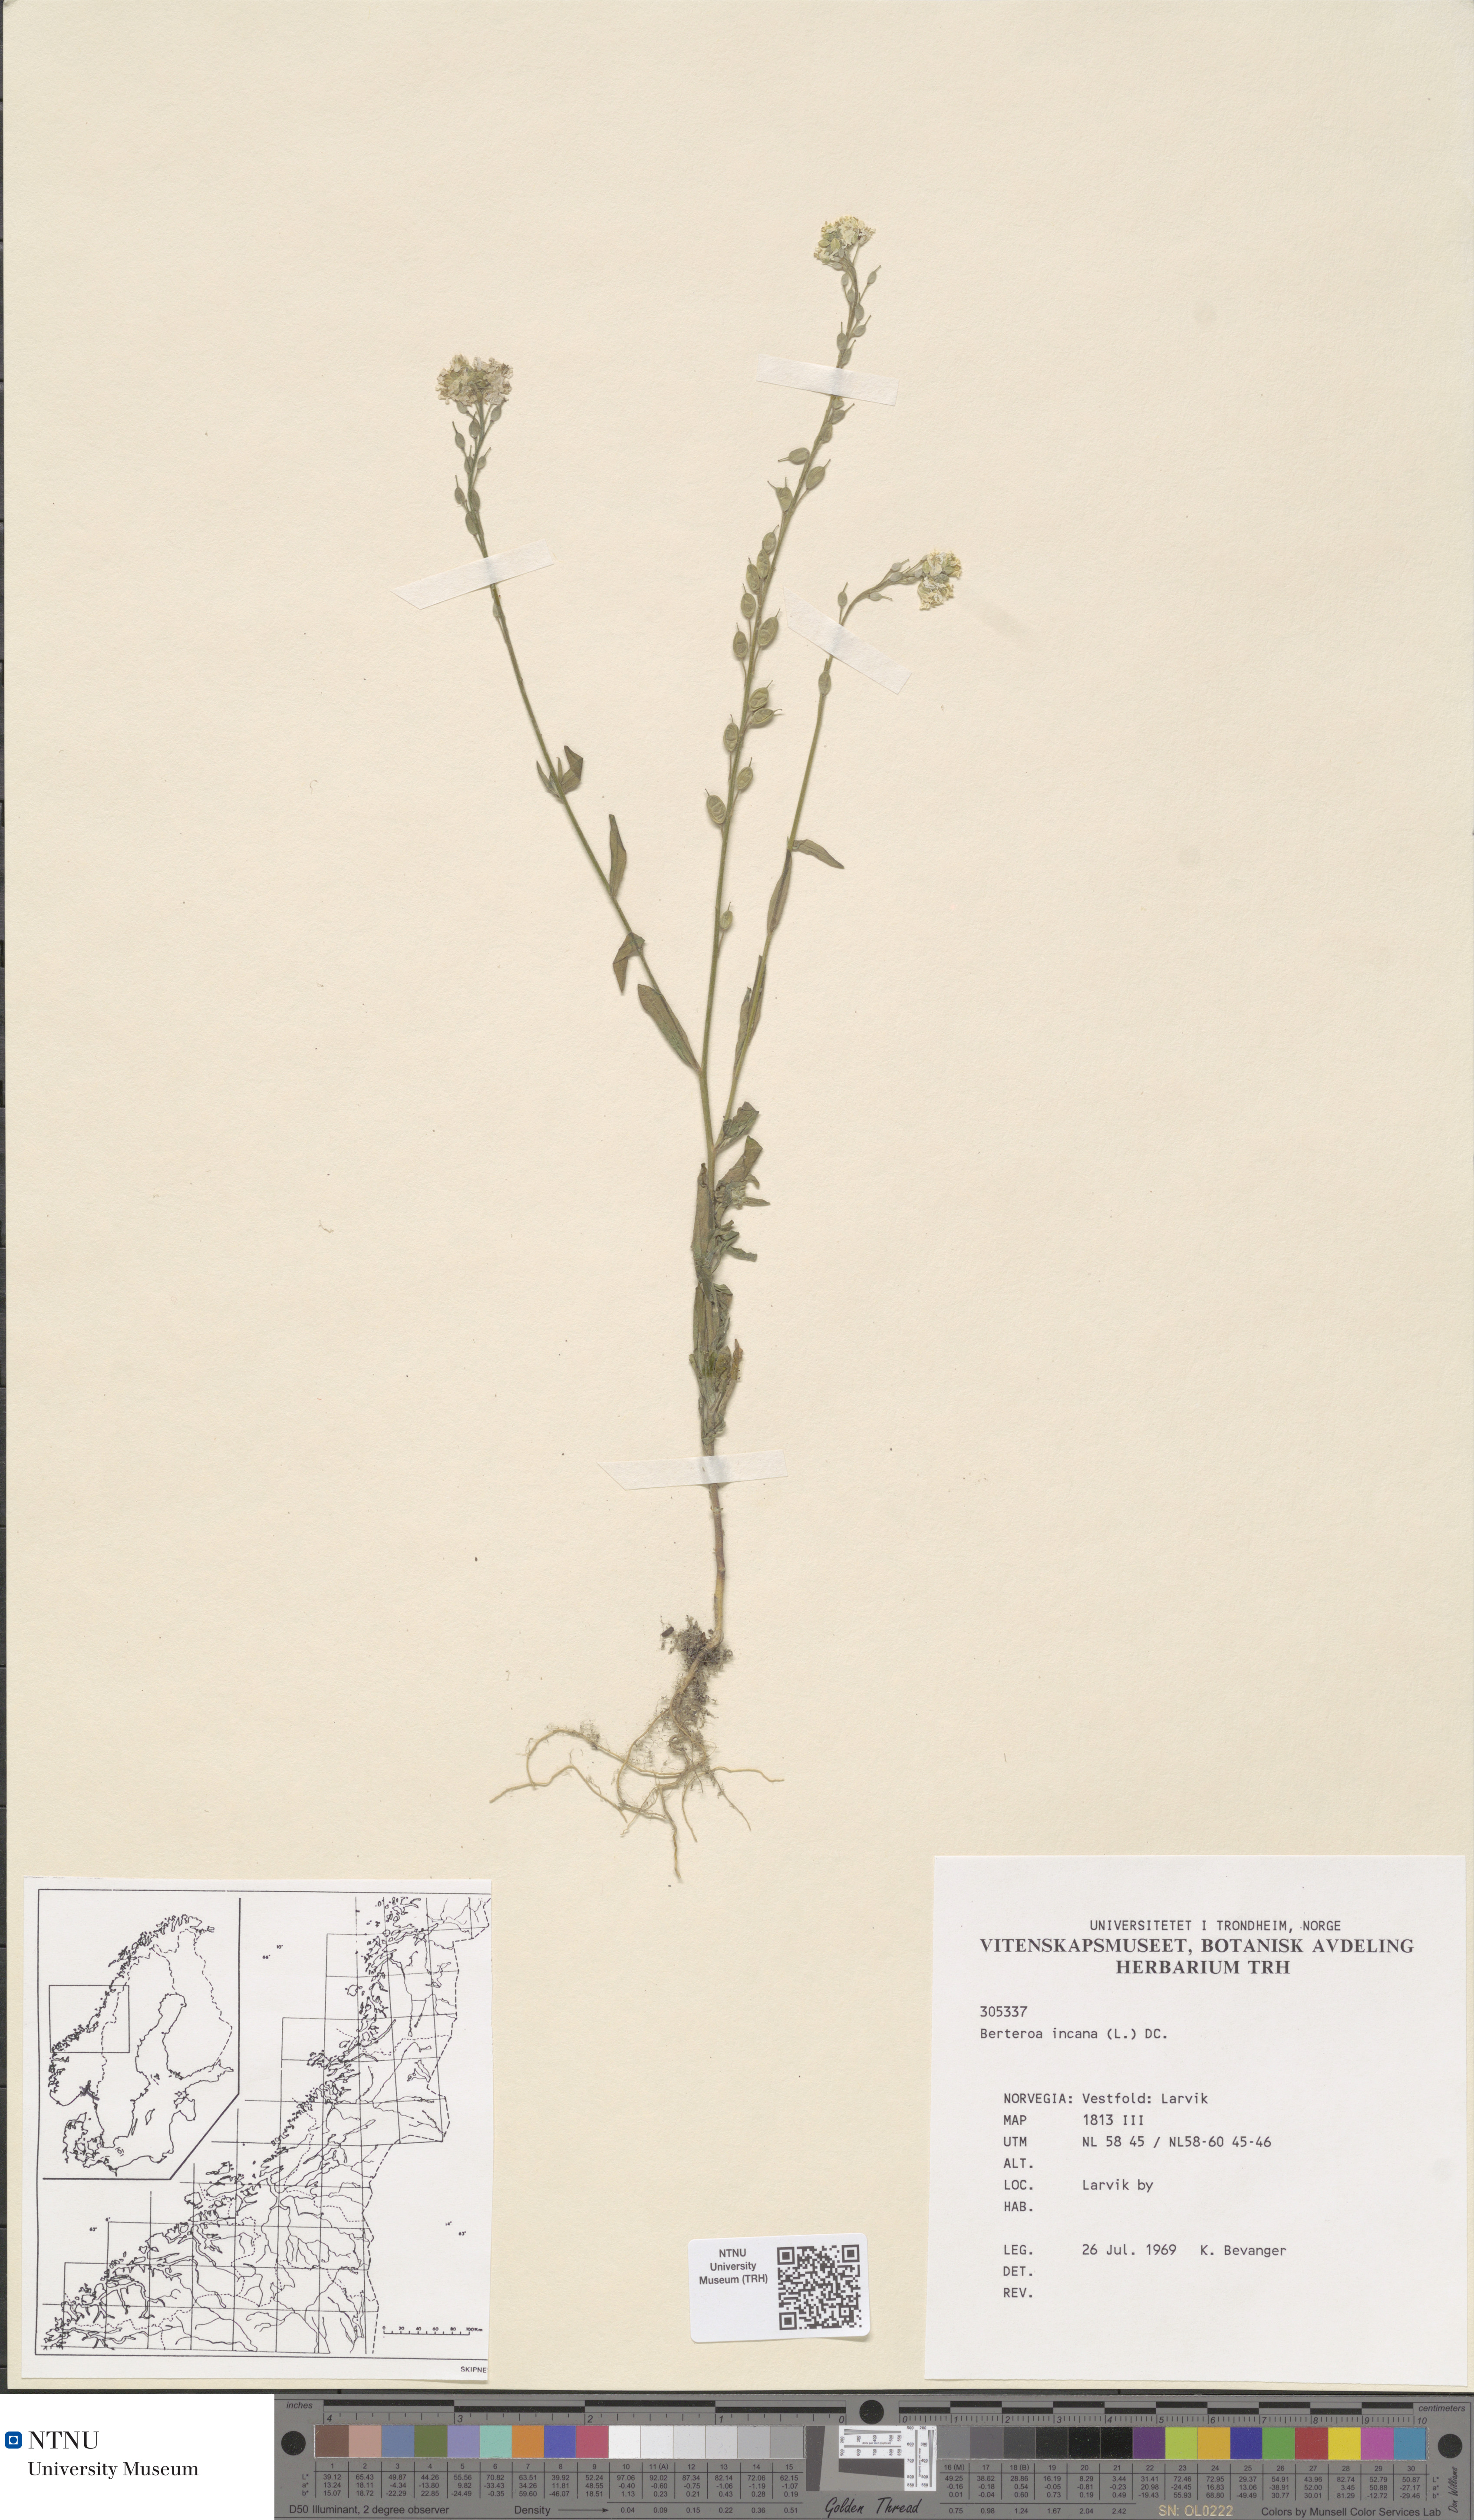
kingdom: Plantae
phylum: Tracheophyta
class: Magnoliopsida
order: Brassicales
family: Brassicaceae
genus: Berteroa
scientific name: Berteroa incana
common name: Hoary alison
